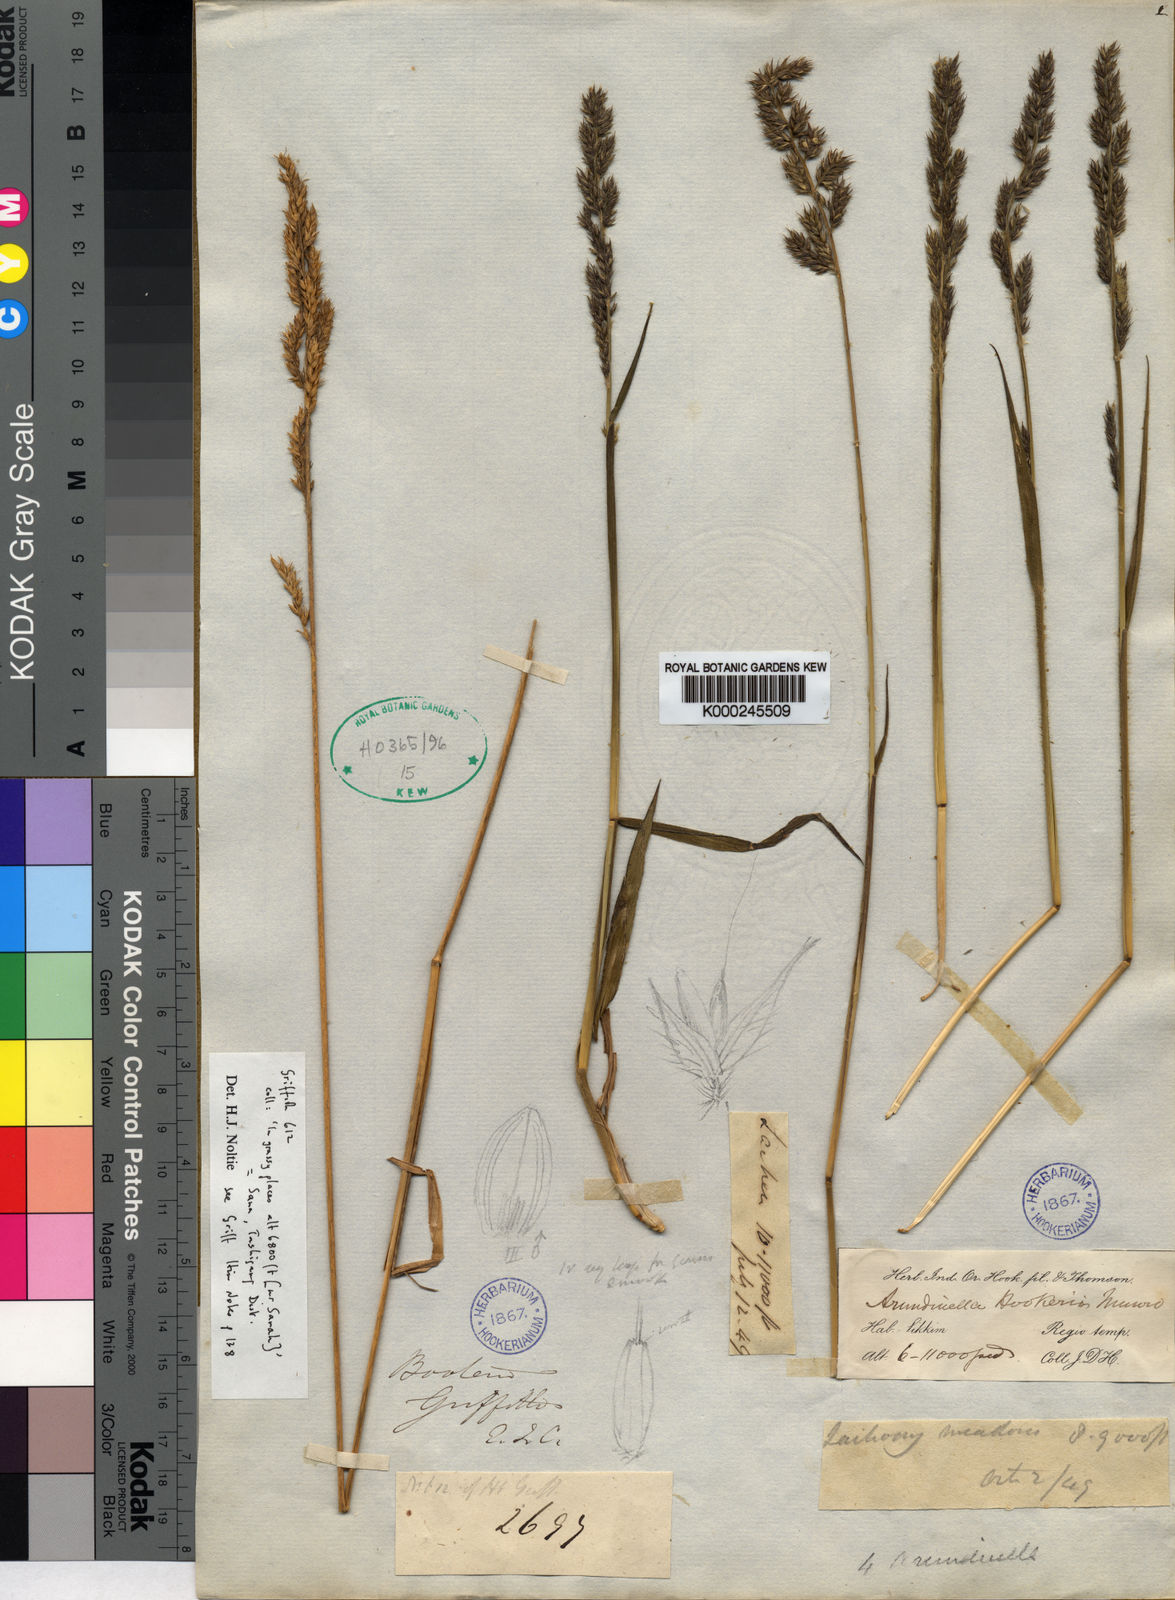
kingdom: Plantae
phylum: Tracheophyta
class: Liliopsida
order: Poales
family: Poaceae
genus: Arundinella
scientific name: Arundinella hookeri
